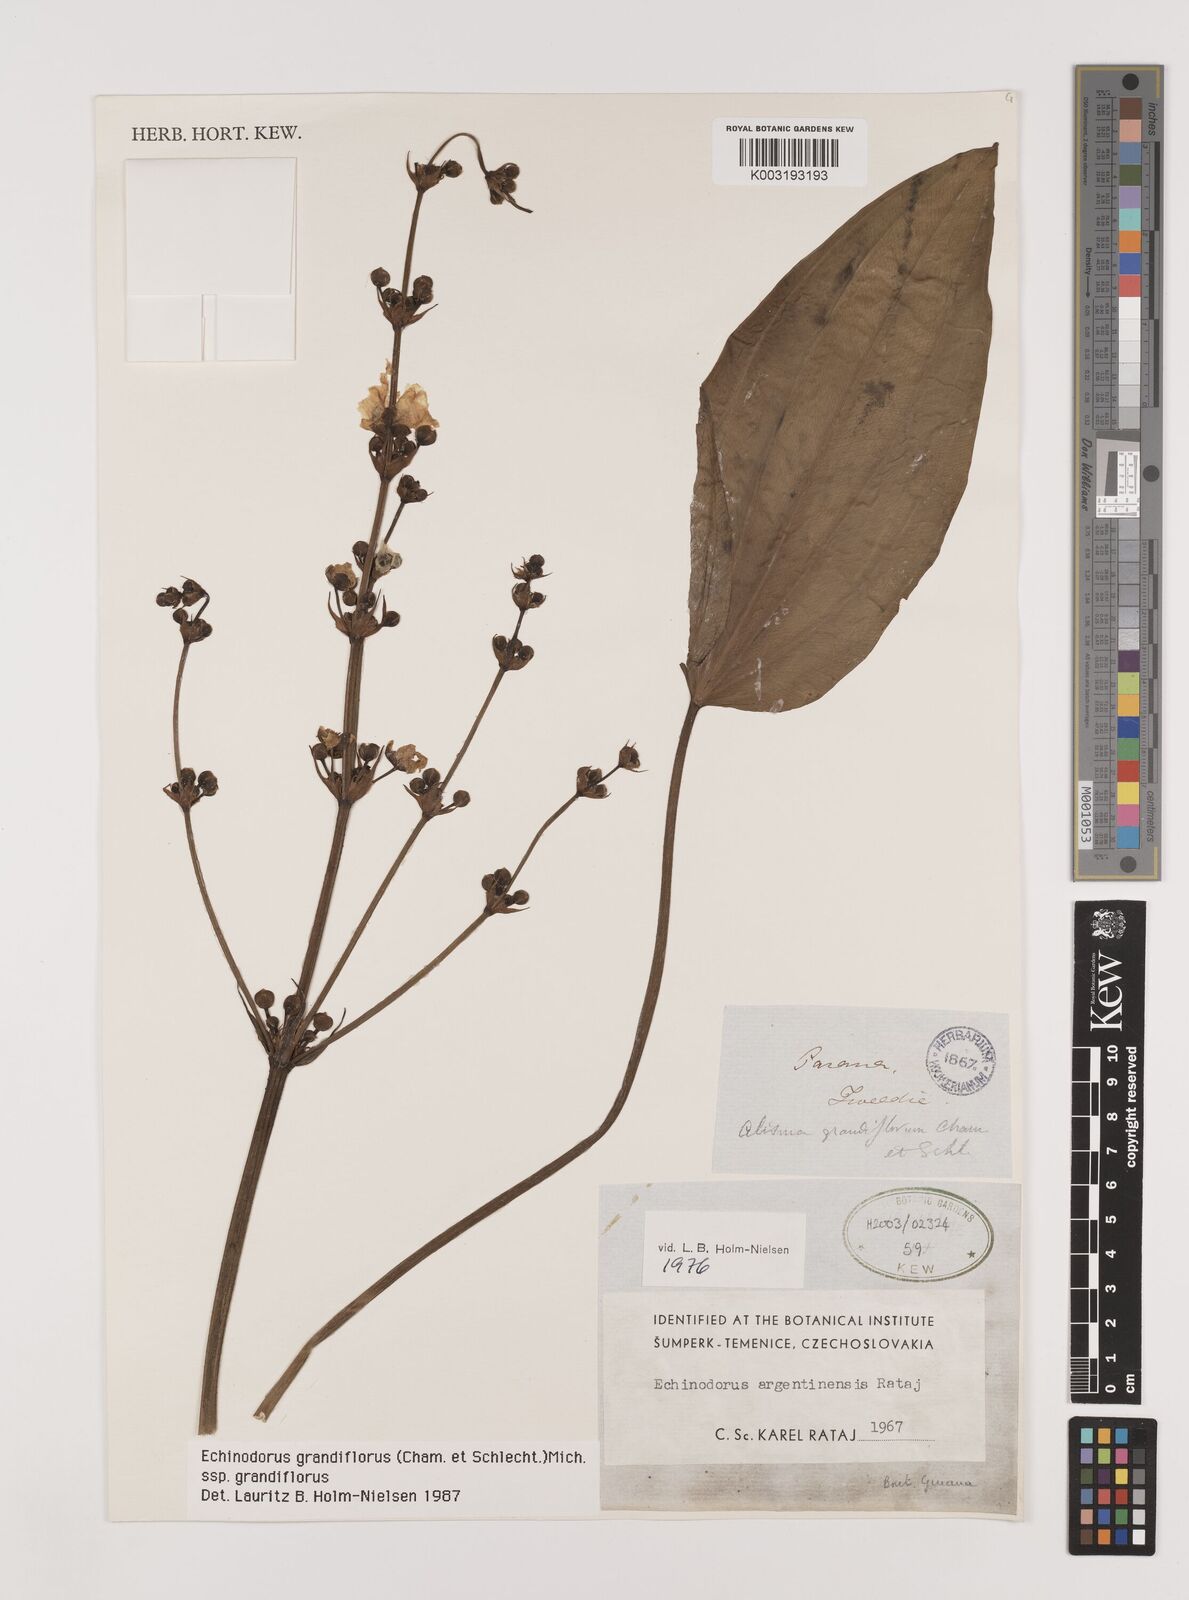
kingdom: Plantae
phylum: Tracheophyta
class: Liliopsida
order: Alismatales
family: Alismataceae
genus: Aquarius
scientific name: Aquarius grandiflorus
